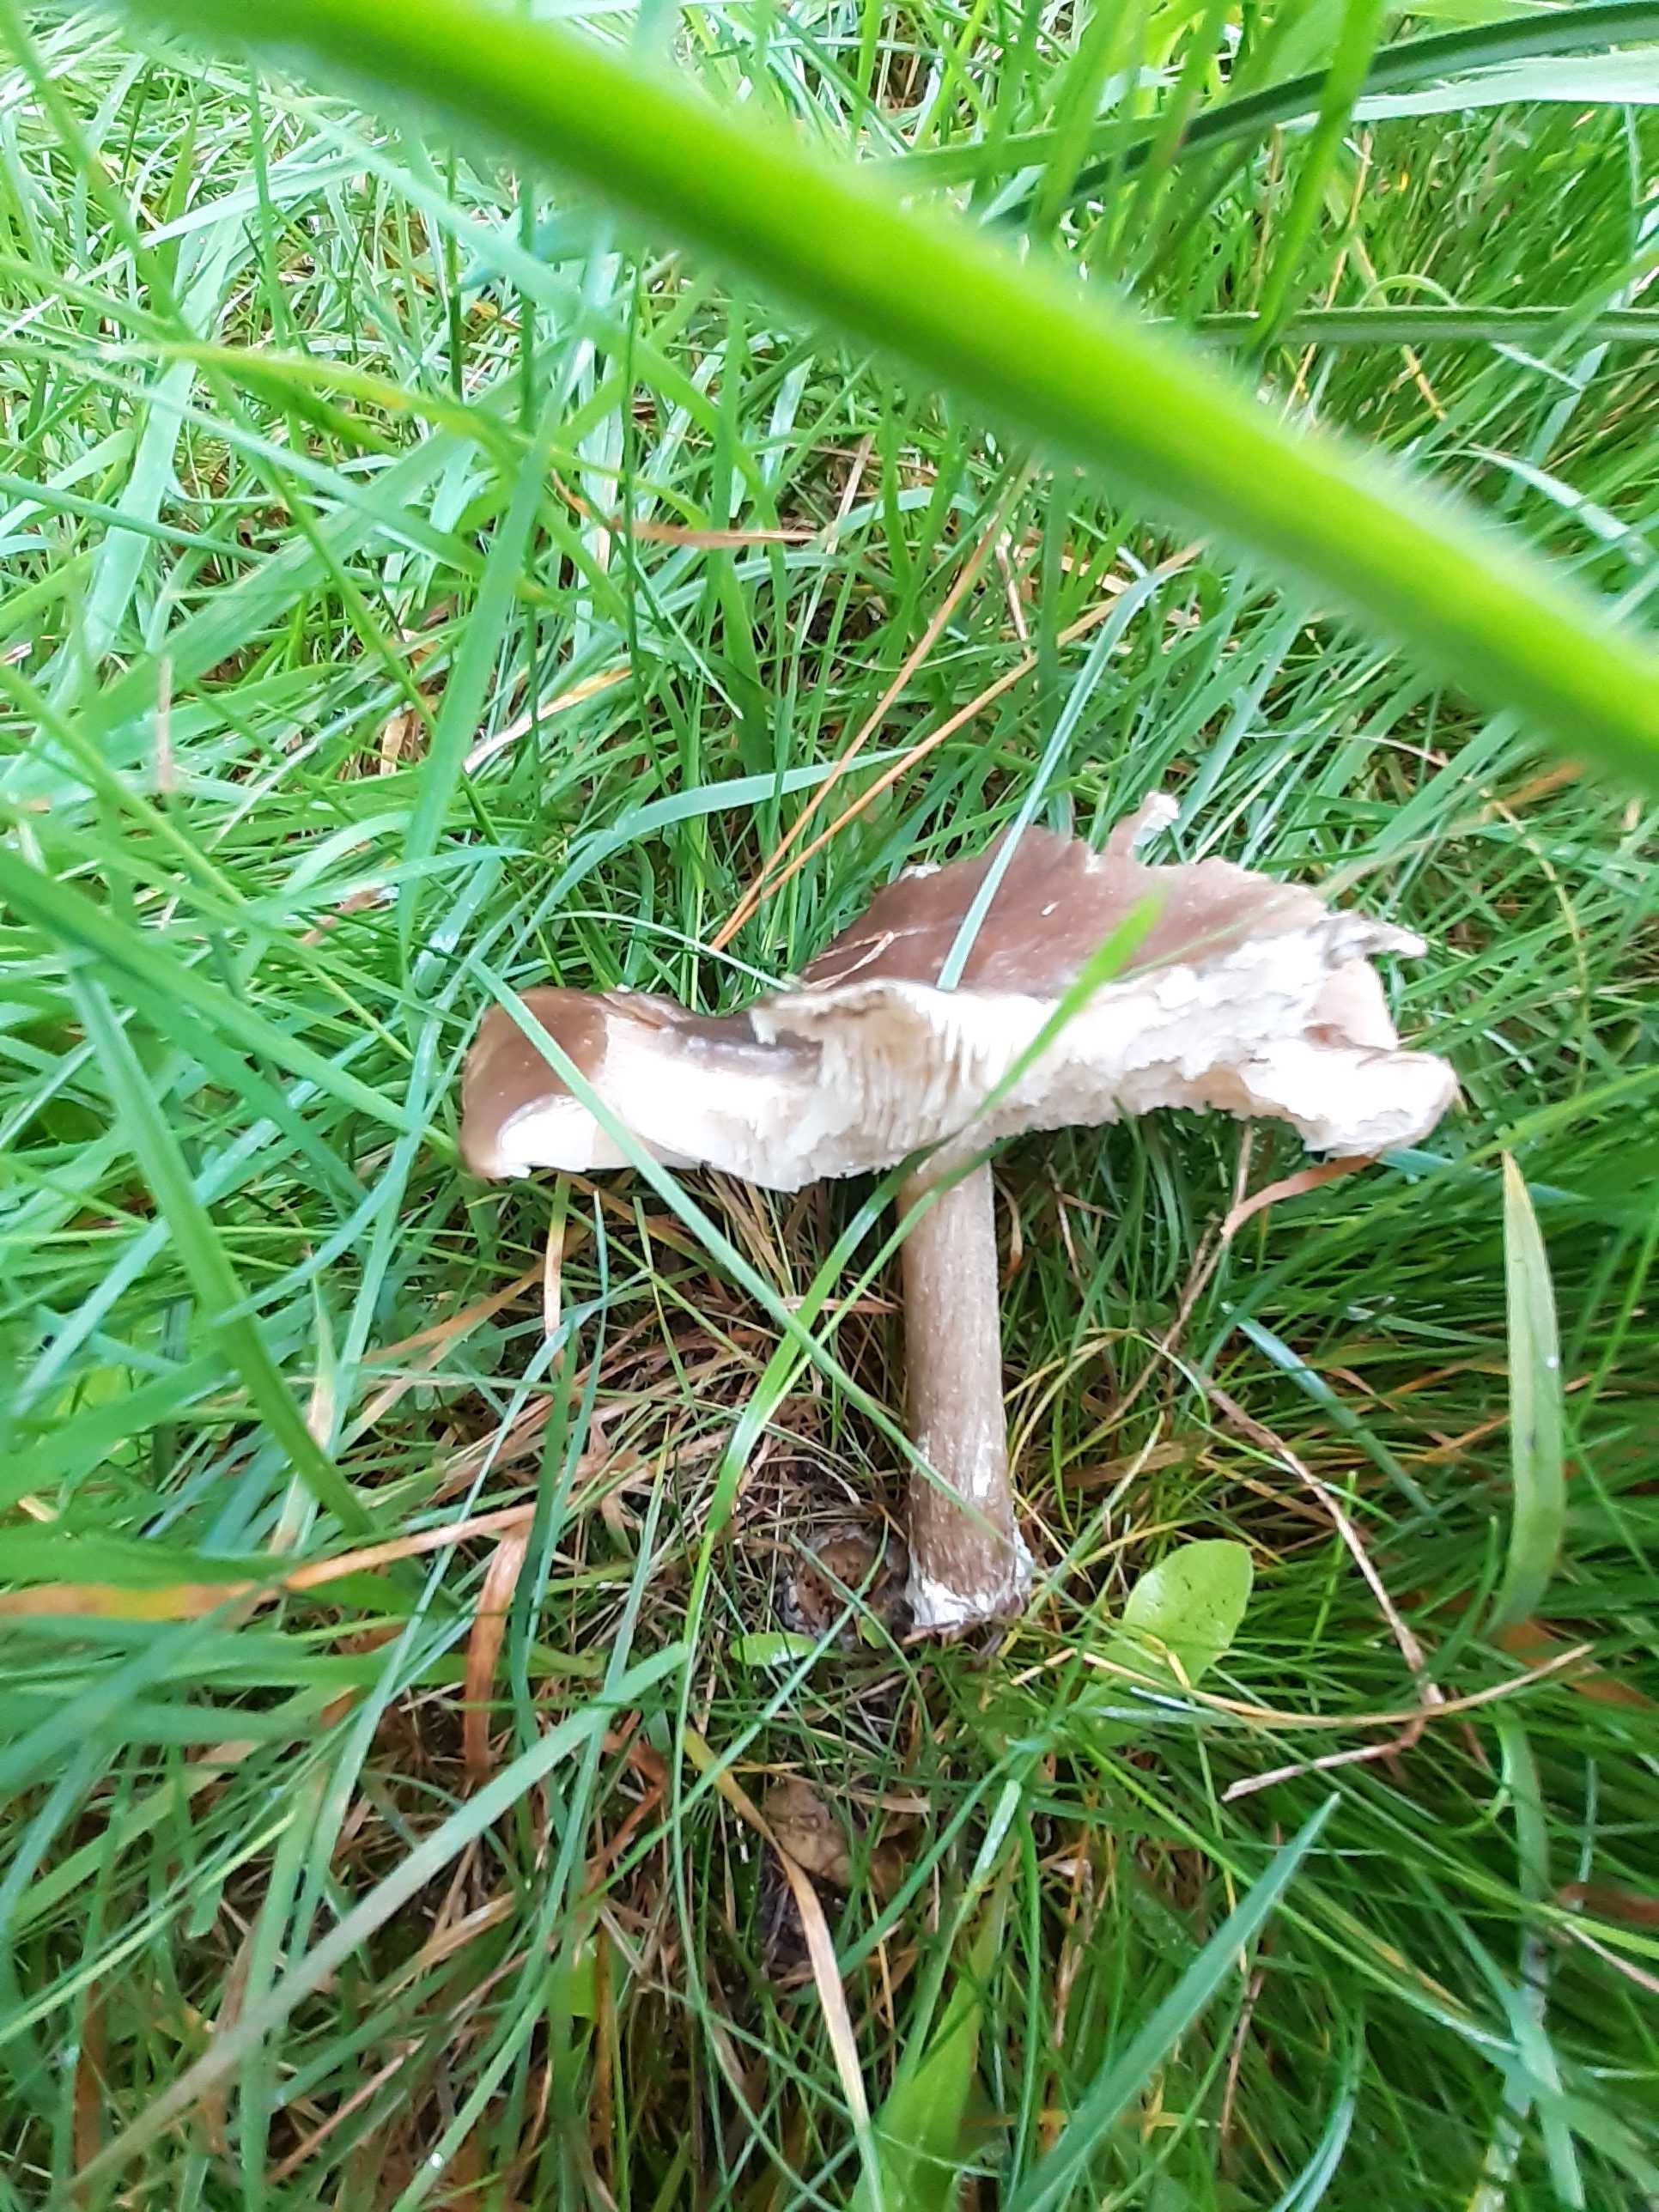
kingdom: Fungi
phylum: Basidiomycota
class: Agaricomycetes
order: Agaricales
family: Tricholomataceae
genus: Melanoleuca
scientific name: Melanoleuca
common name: munkehat
